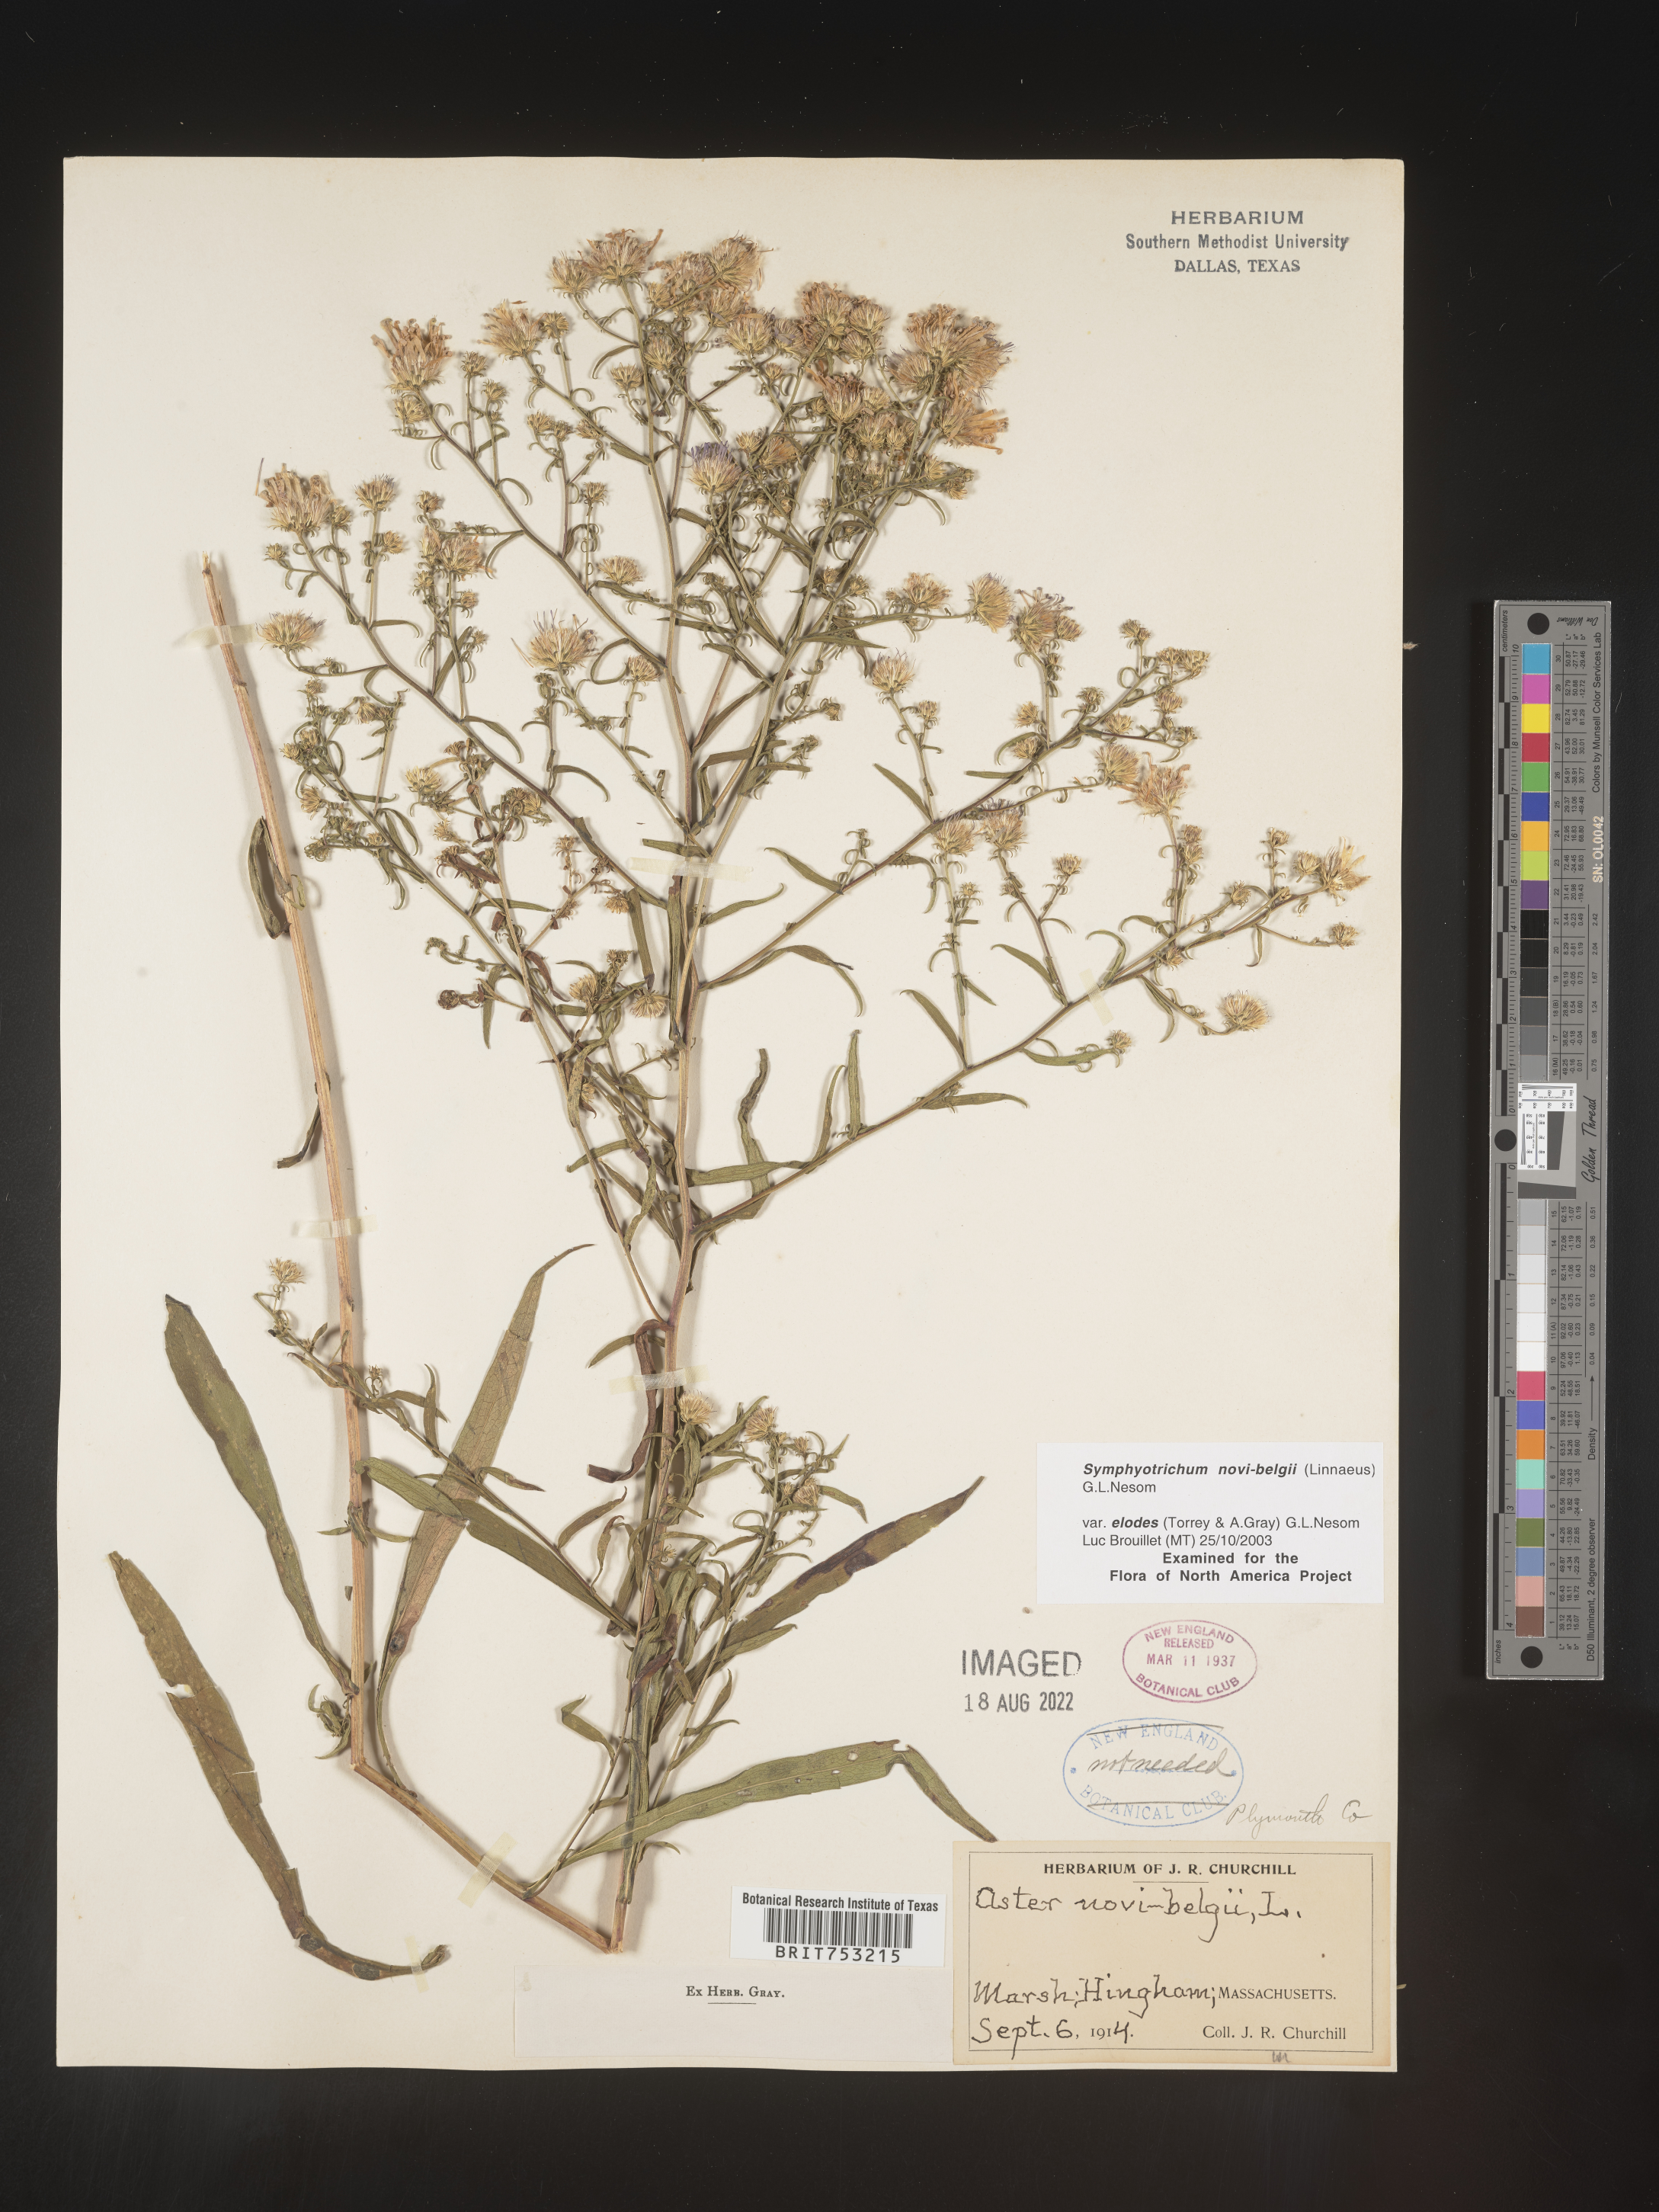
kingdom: Plantae
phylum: Tracheophyta
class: Magnoliopsida
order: Asterales
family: Asteraceae
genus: Symphyotrichum
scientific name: Symphyotrichum novi-belgii
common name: Michaelmas daisy
